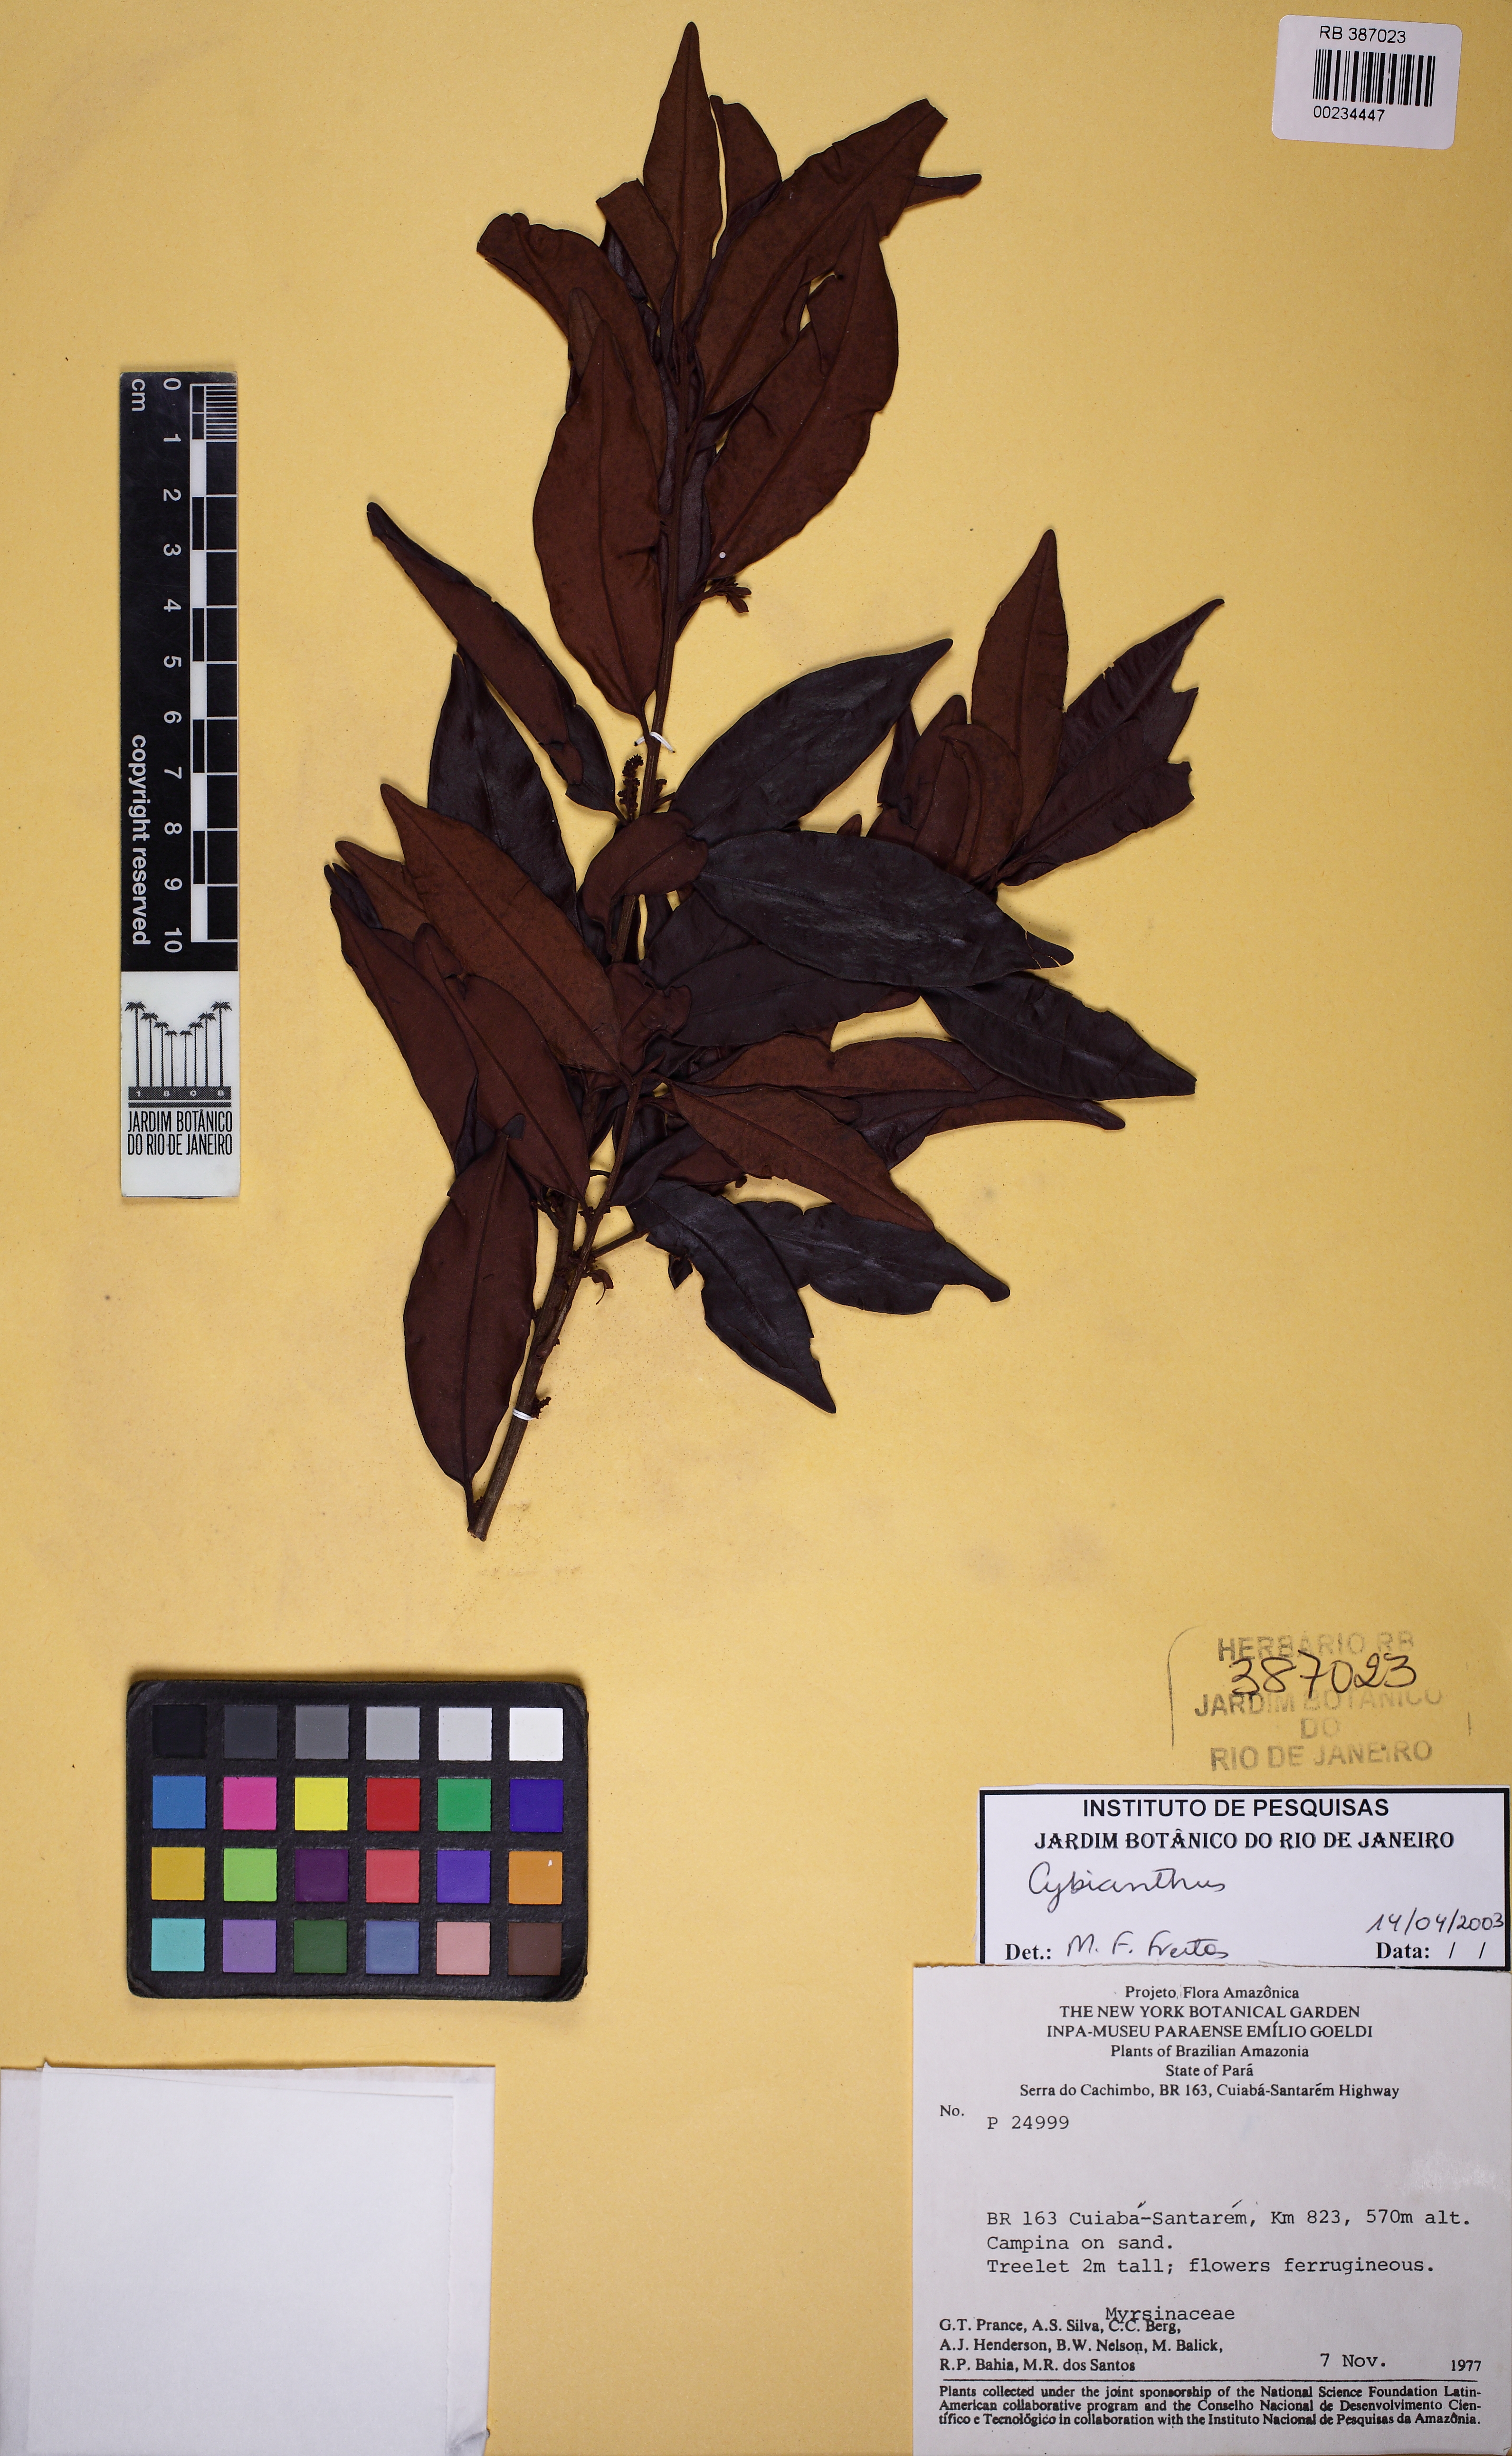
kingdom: Plantae
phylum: Tracheophyta
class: Magnoliopsida
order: Ericales
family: Primulaceae
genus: Cybianthus
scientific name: Cybianthus
